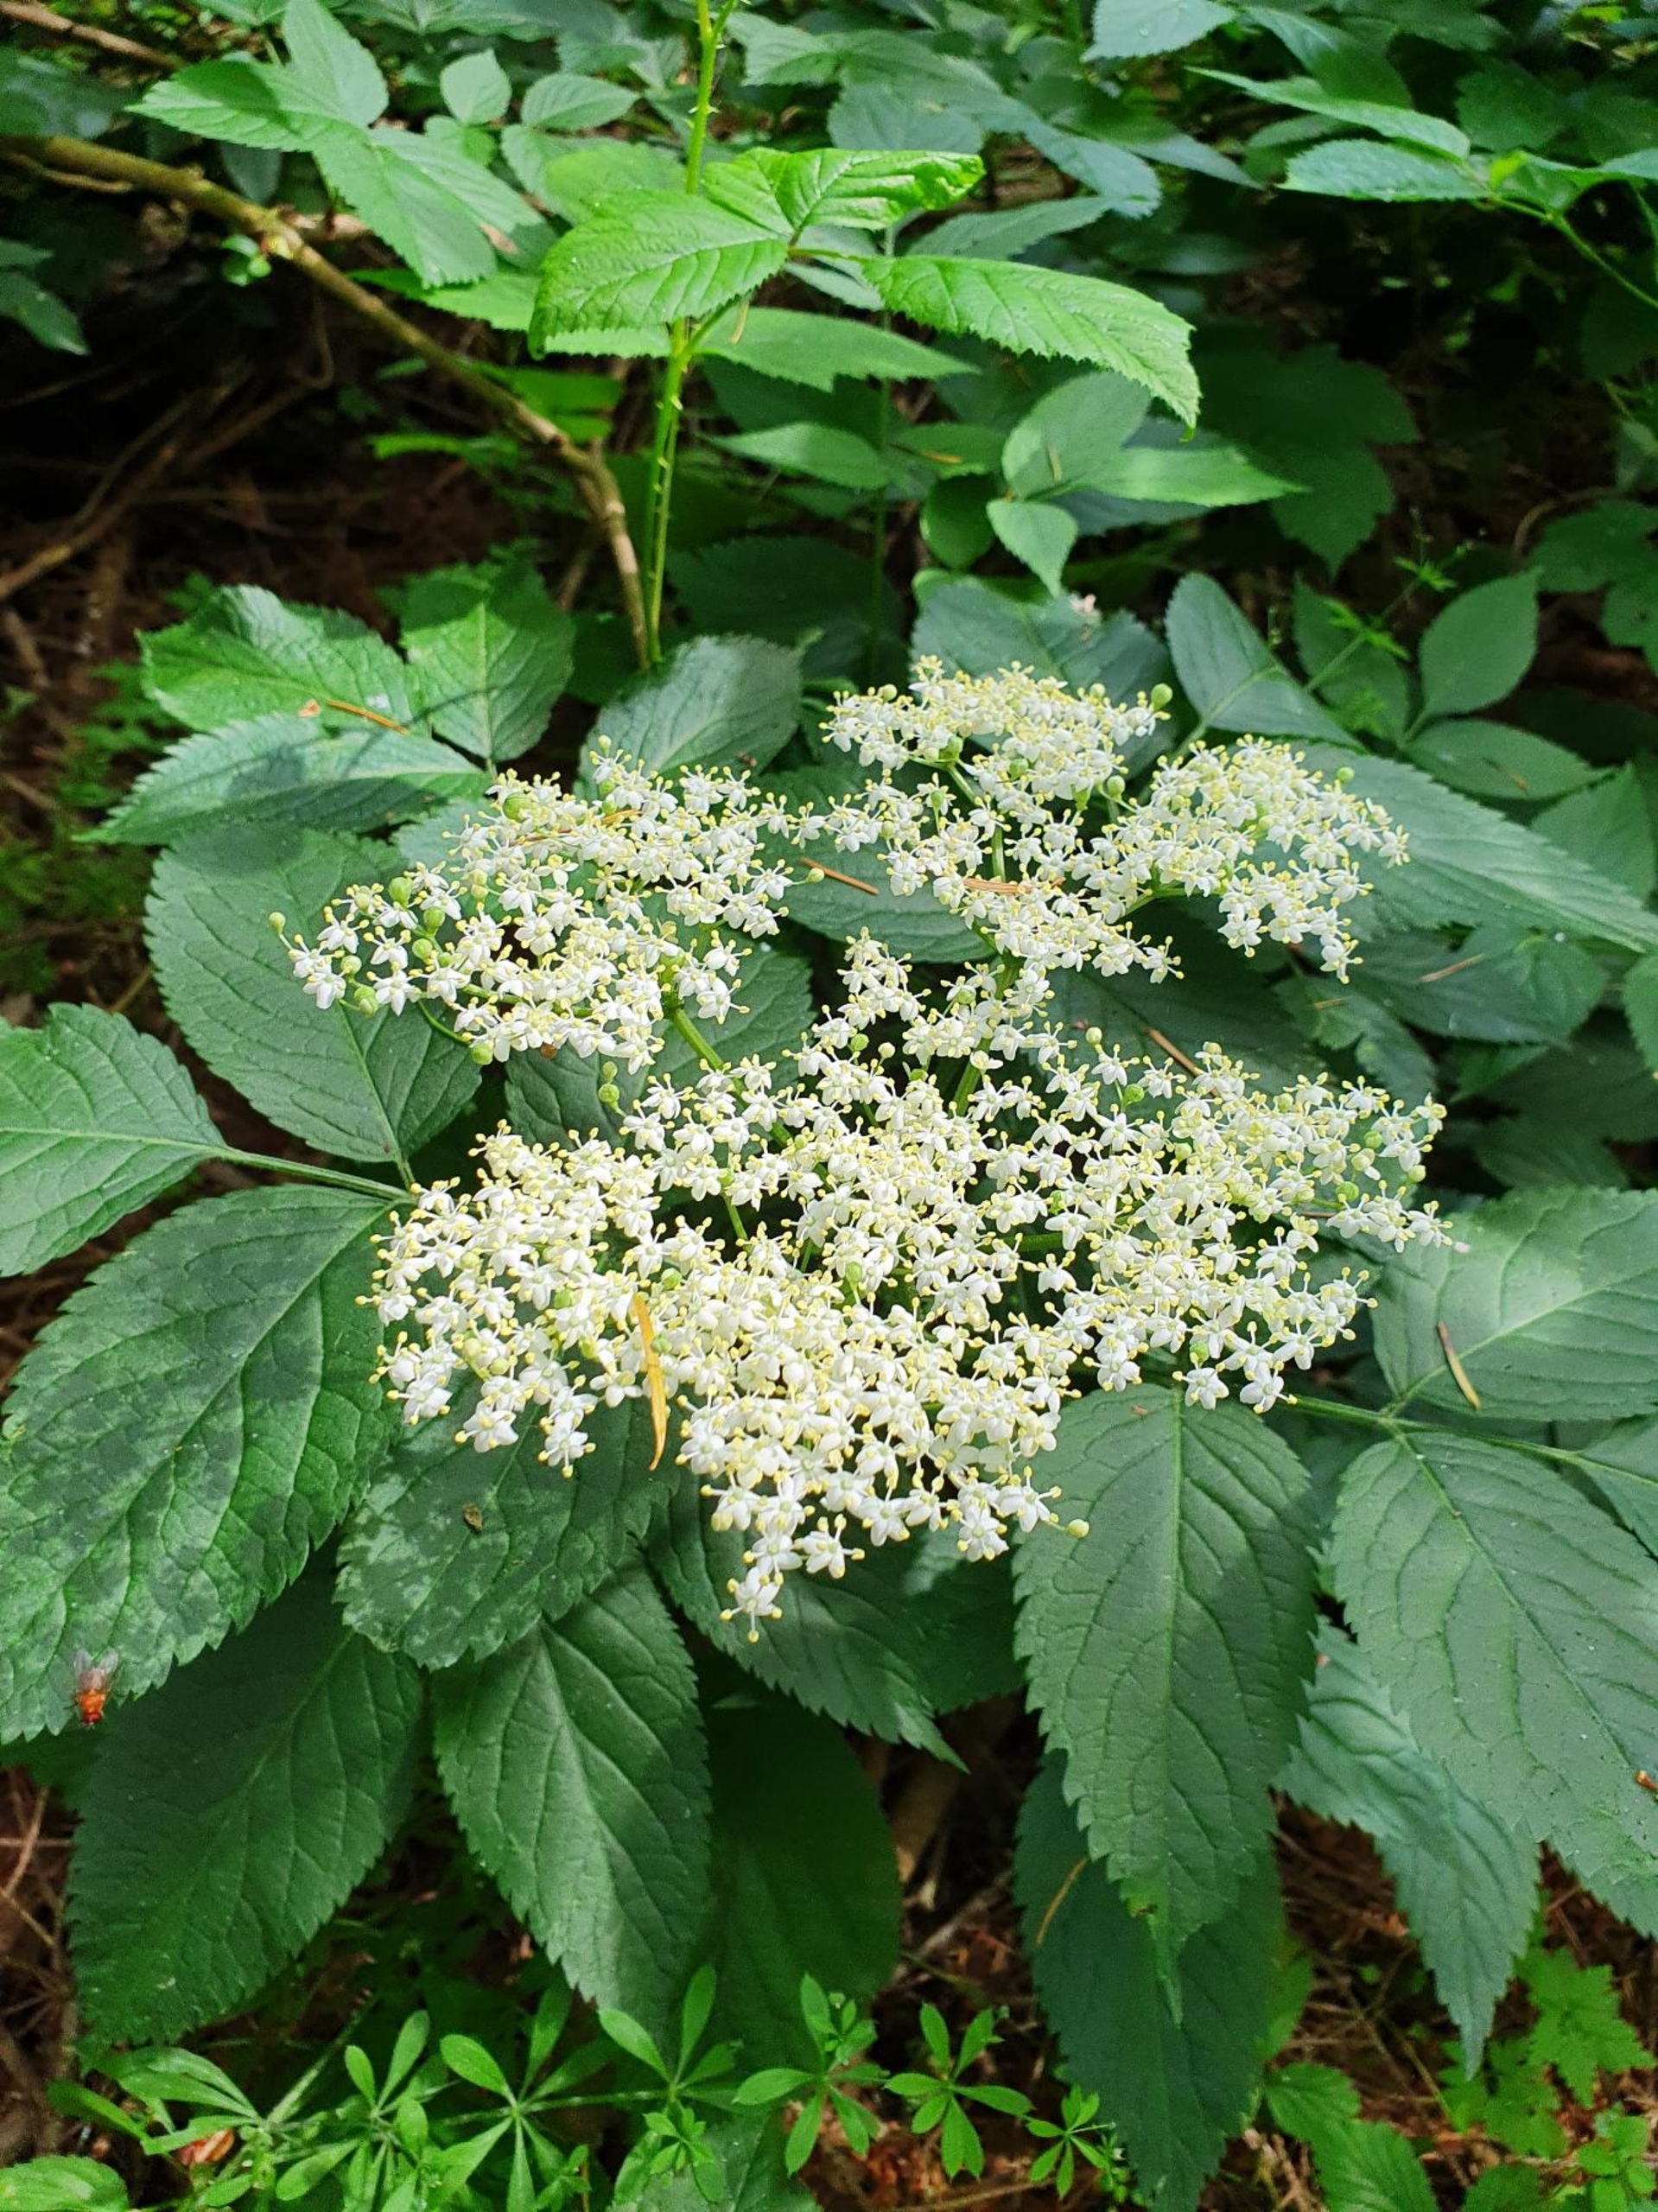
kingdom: Plantae
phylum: Tracheophyta
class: Magnoliopsida
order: Dipsacales
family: Viburnaceae
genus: Sambucus
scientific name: Sambucus nigra
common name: Almindelig hyld
